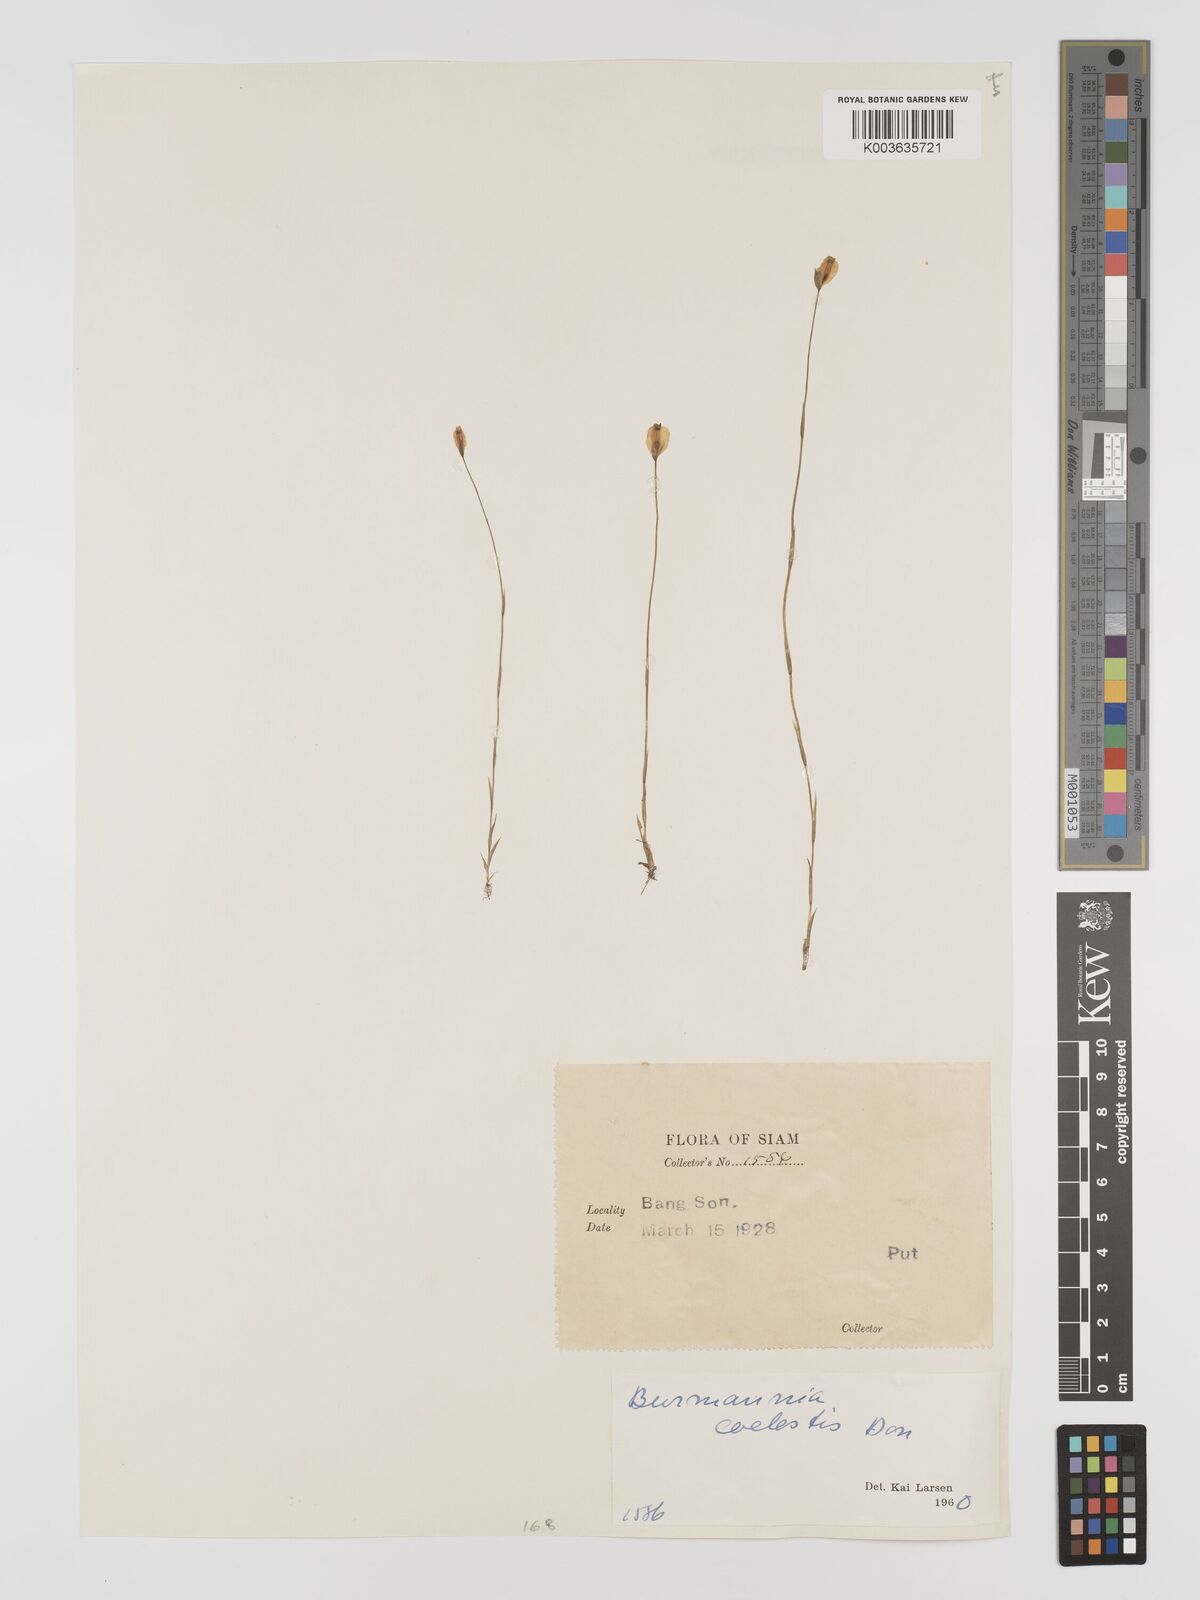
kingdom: Plantae
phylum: Tracheophyta
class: Liliopsida
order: Dioscoreales
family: Burmanniaceae
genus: Burmannia
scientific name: Burmannia coelestis
